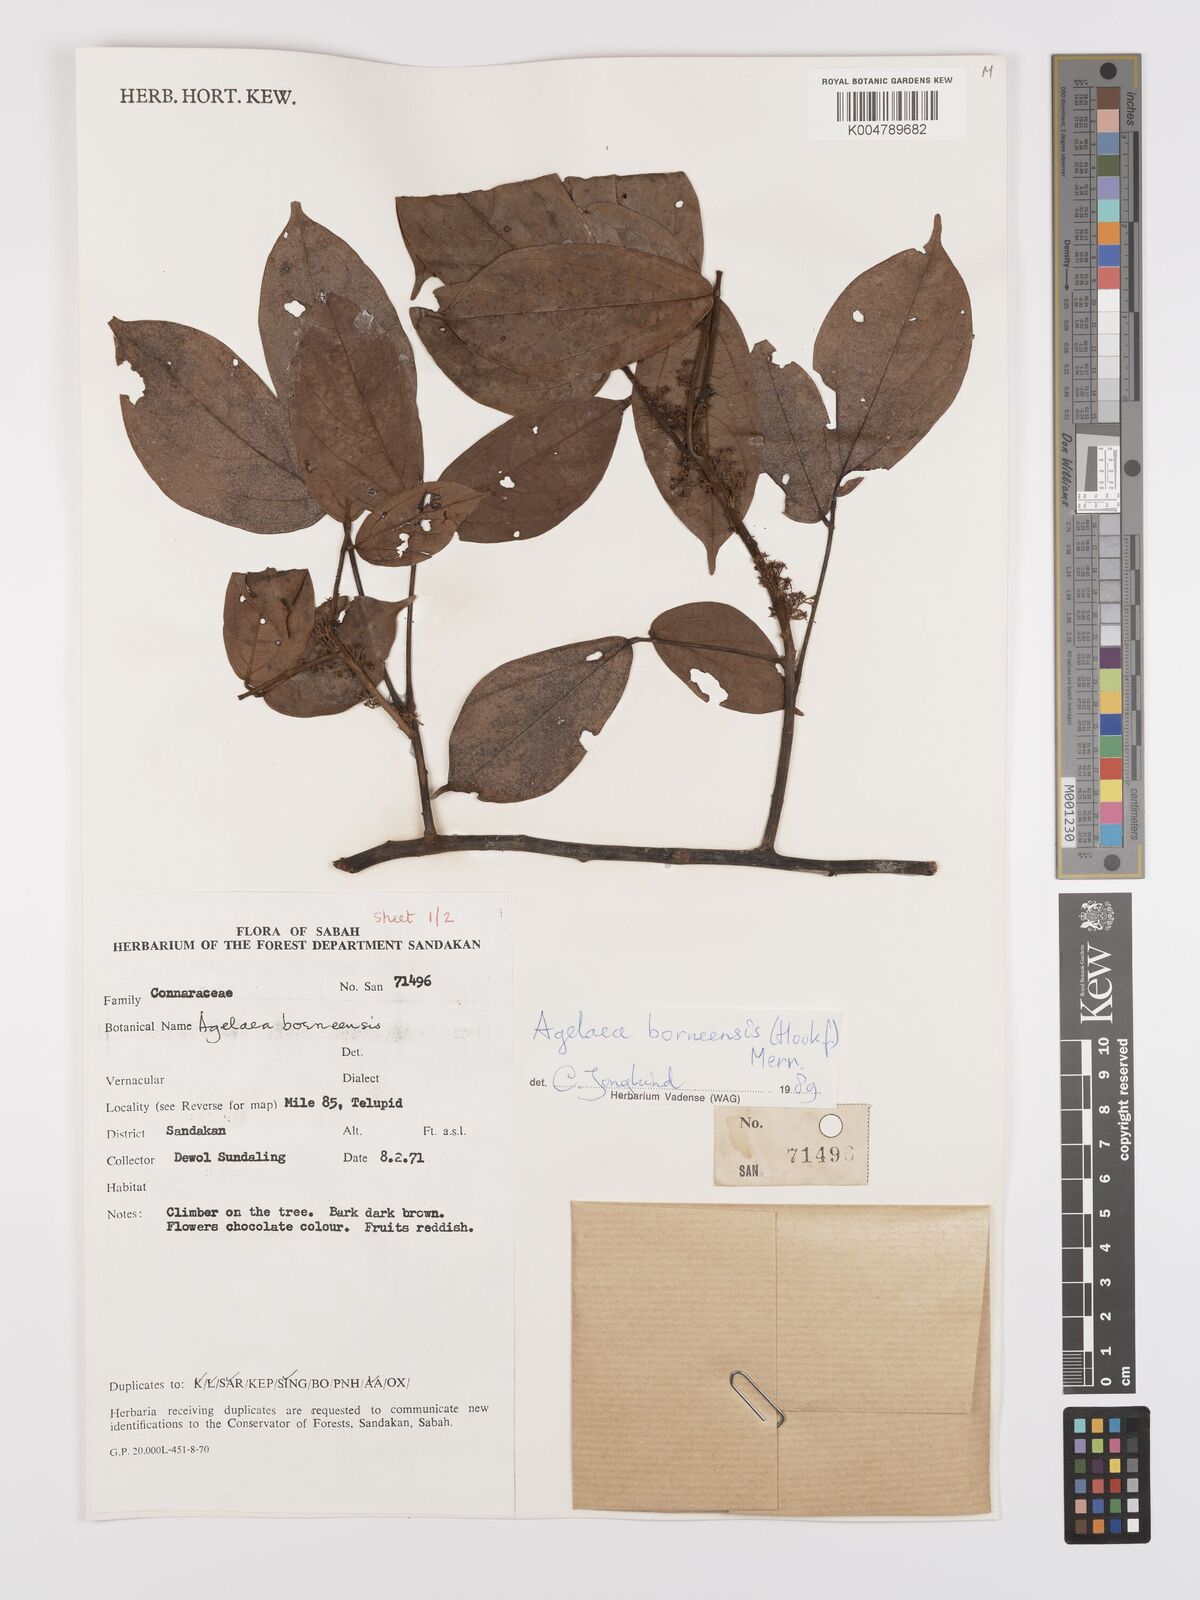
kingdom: Plantae
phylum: Tracheophyta
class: Magnoliopsida
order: Oxalidales
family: Connaraceae
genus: Agelaea
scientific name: Agelaea borneensis
